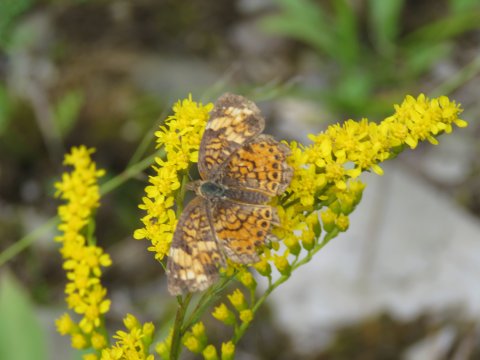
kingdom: Animalia
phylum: Arthropoda
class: Insecta
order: Lepidoptera
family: Nymphalidae
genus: Phyciodes
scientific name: Phyciodes
